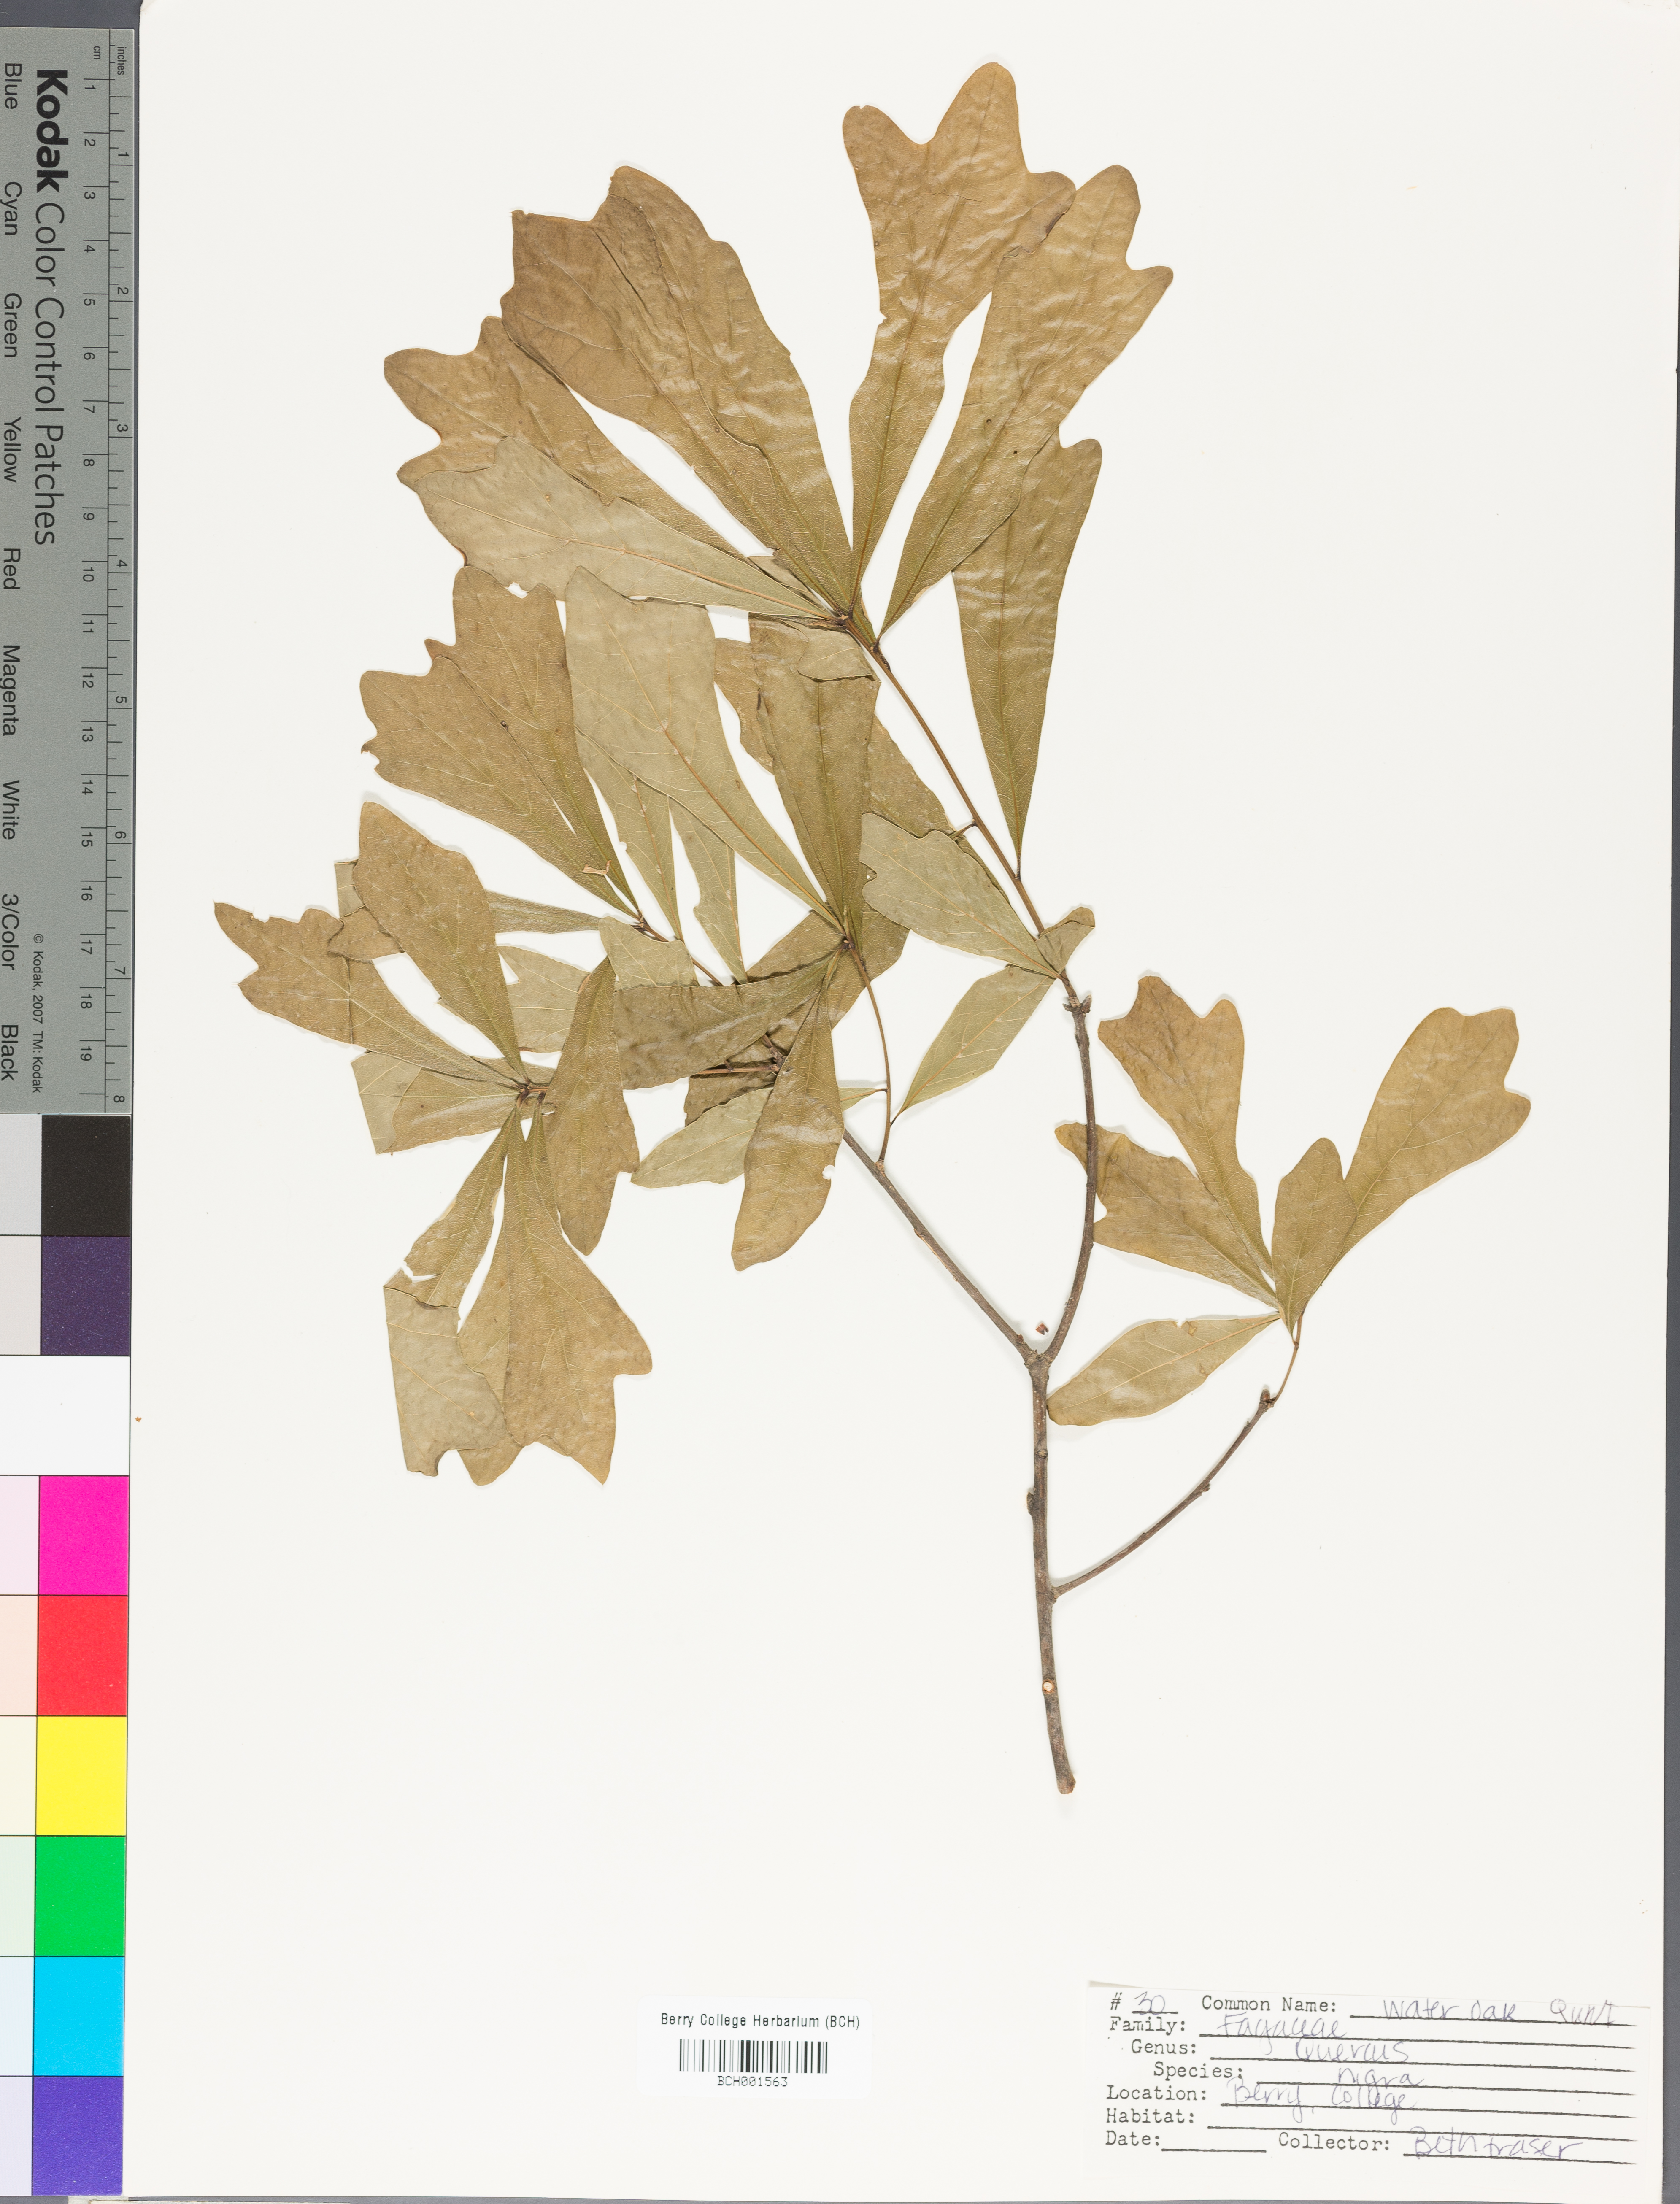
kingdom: Plantae
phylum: Tracheophyta
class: Magnoliopsida
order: Fagales
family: Fagaceae
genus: Quercus
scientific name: Quercus nigra
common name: Water oak
